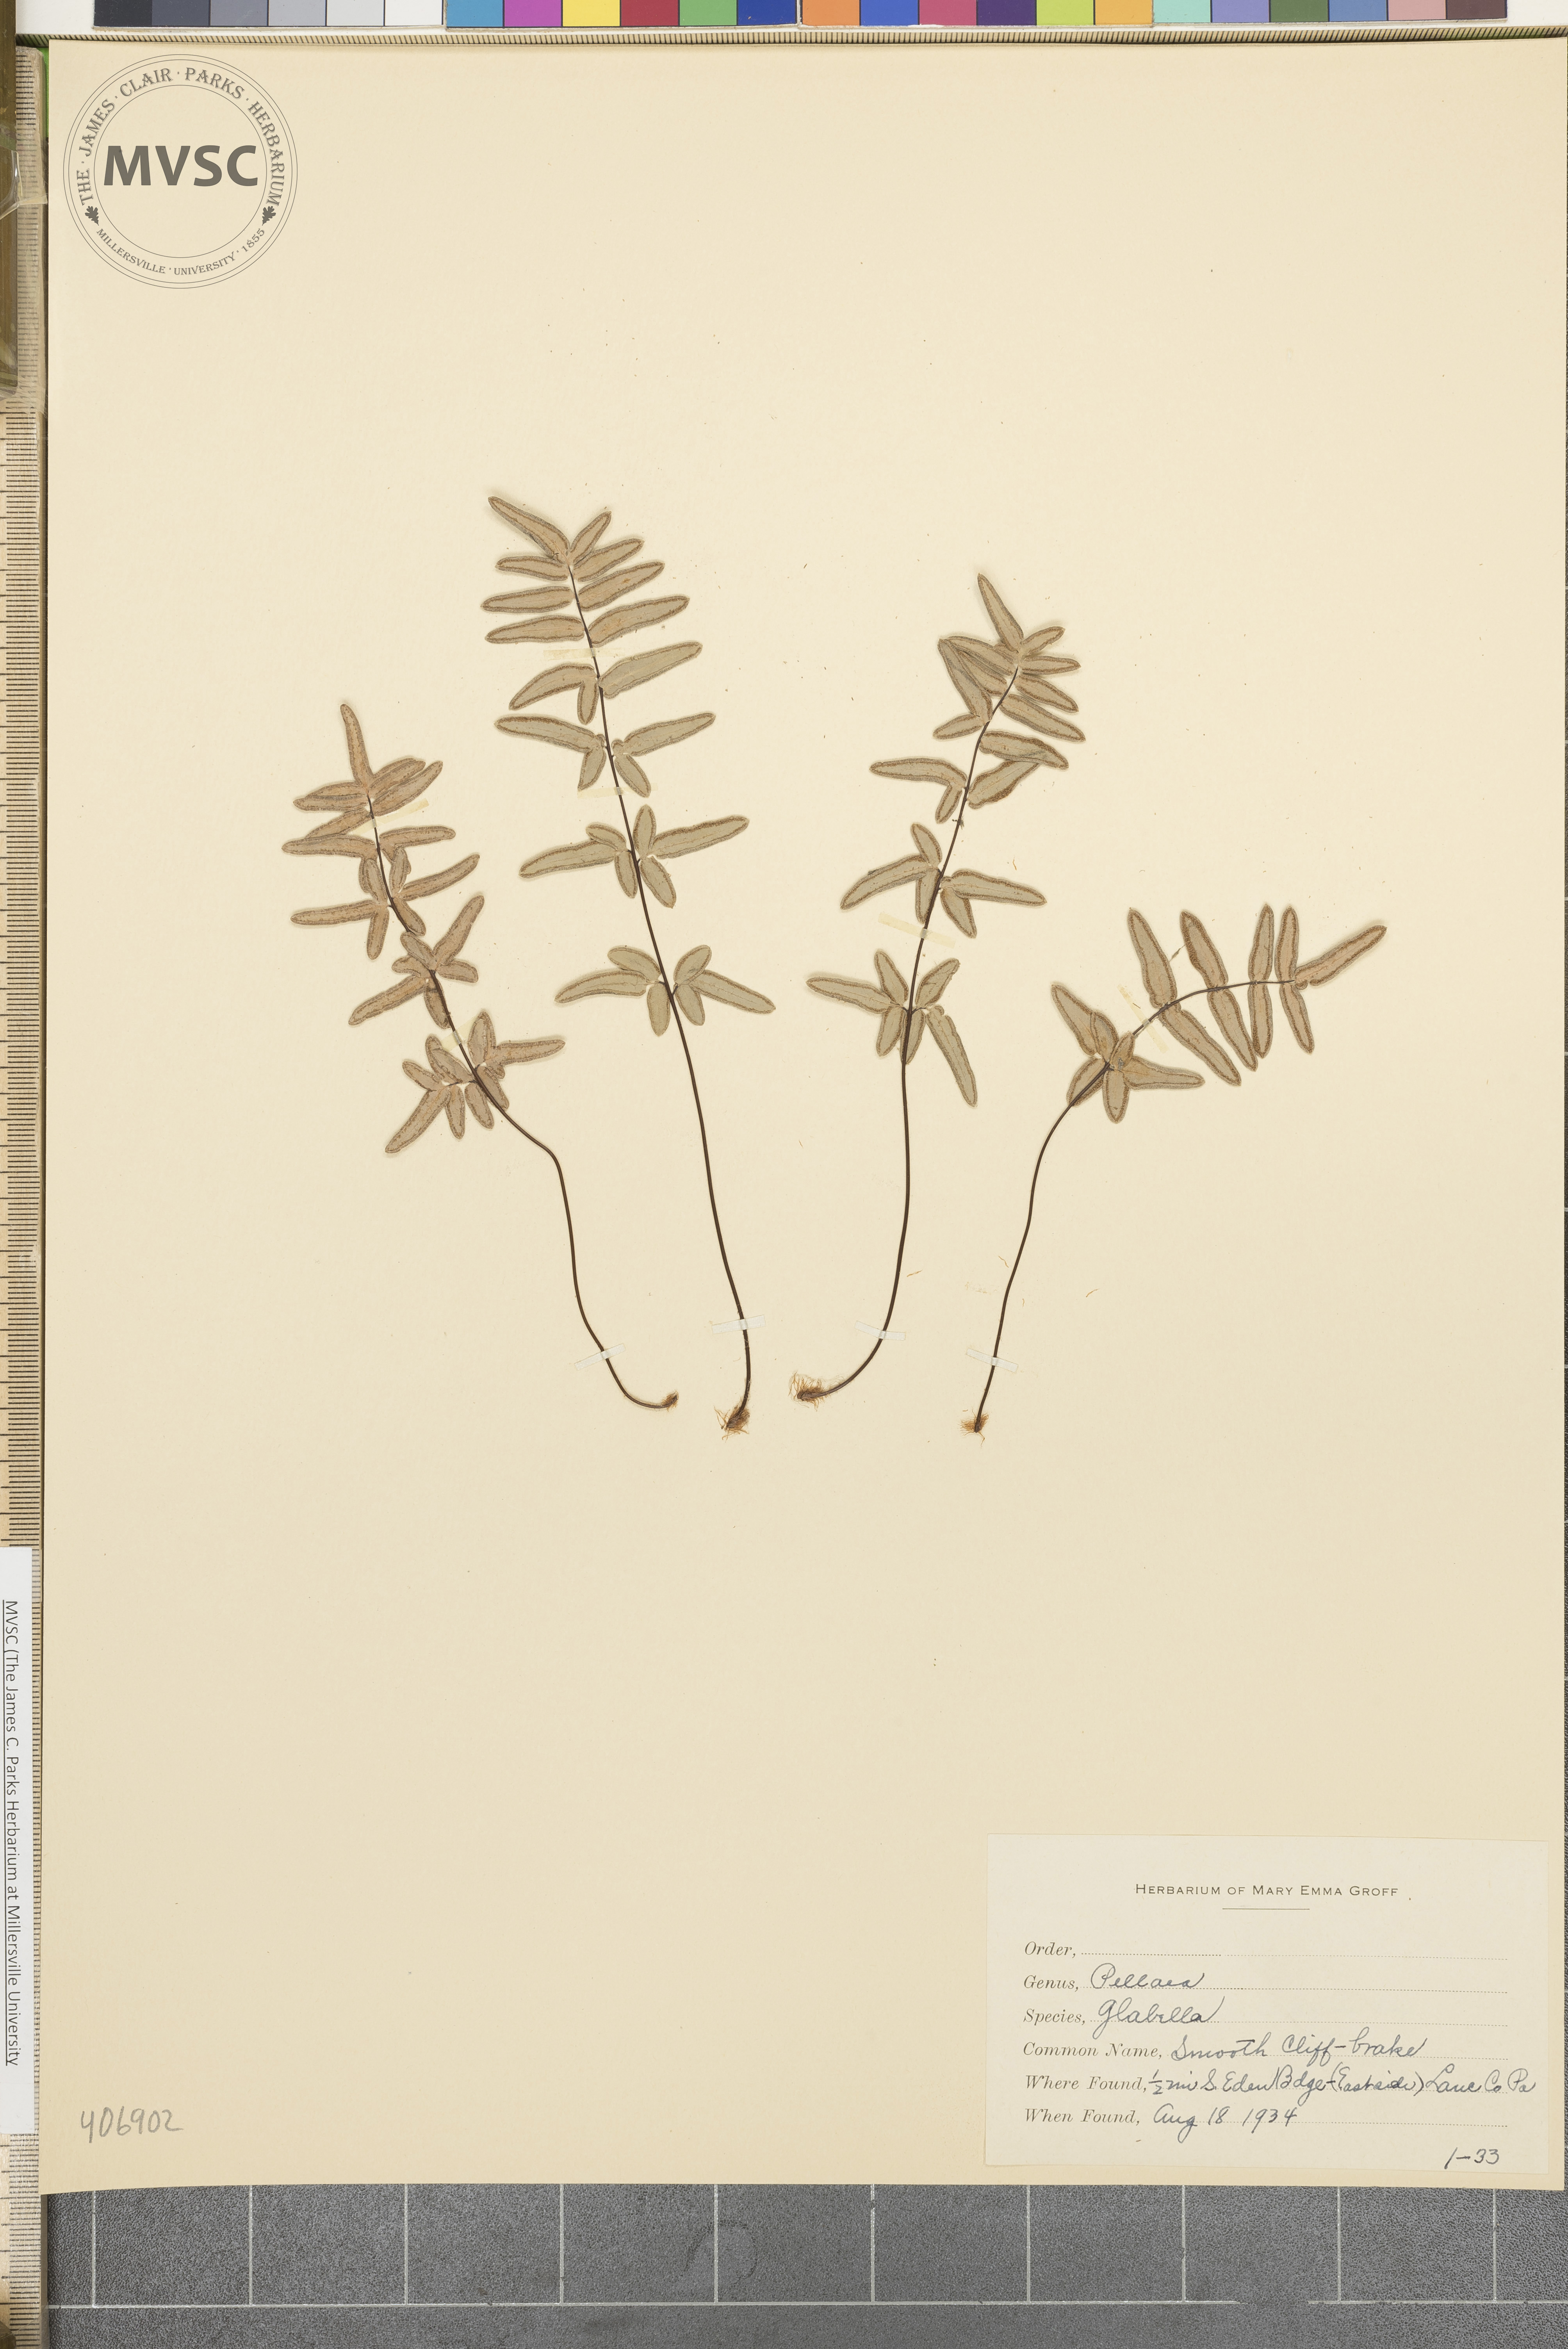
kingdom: Plantae
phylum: Tracheophyta
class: Polypodiopsida
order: Polypodiales
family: Pteridaceae
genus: Pellaea
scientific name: Pellaea glabella
